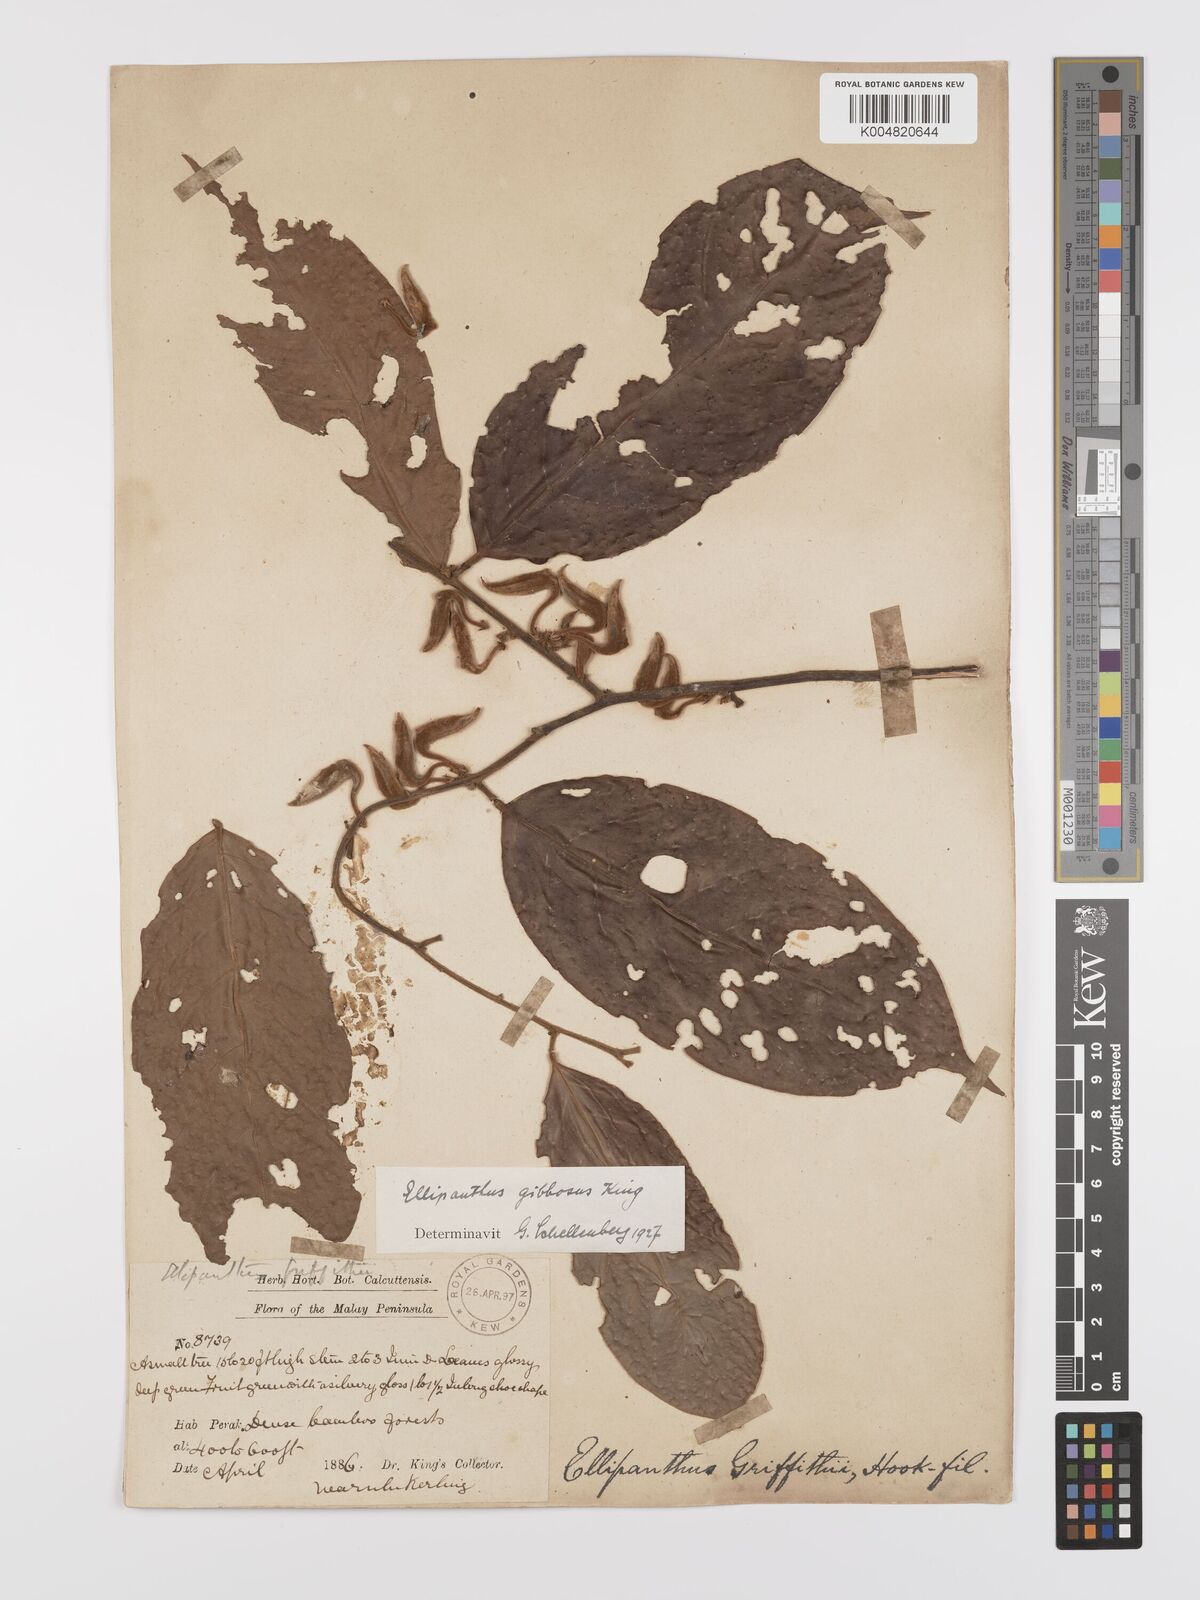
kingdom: Plantae
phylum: Tracheophyta
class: Magnoliopsida
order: Oxalidales
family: Connaraceae
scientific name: Connaraceae
